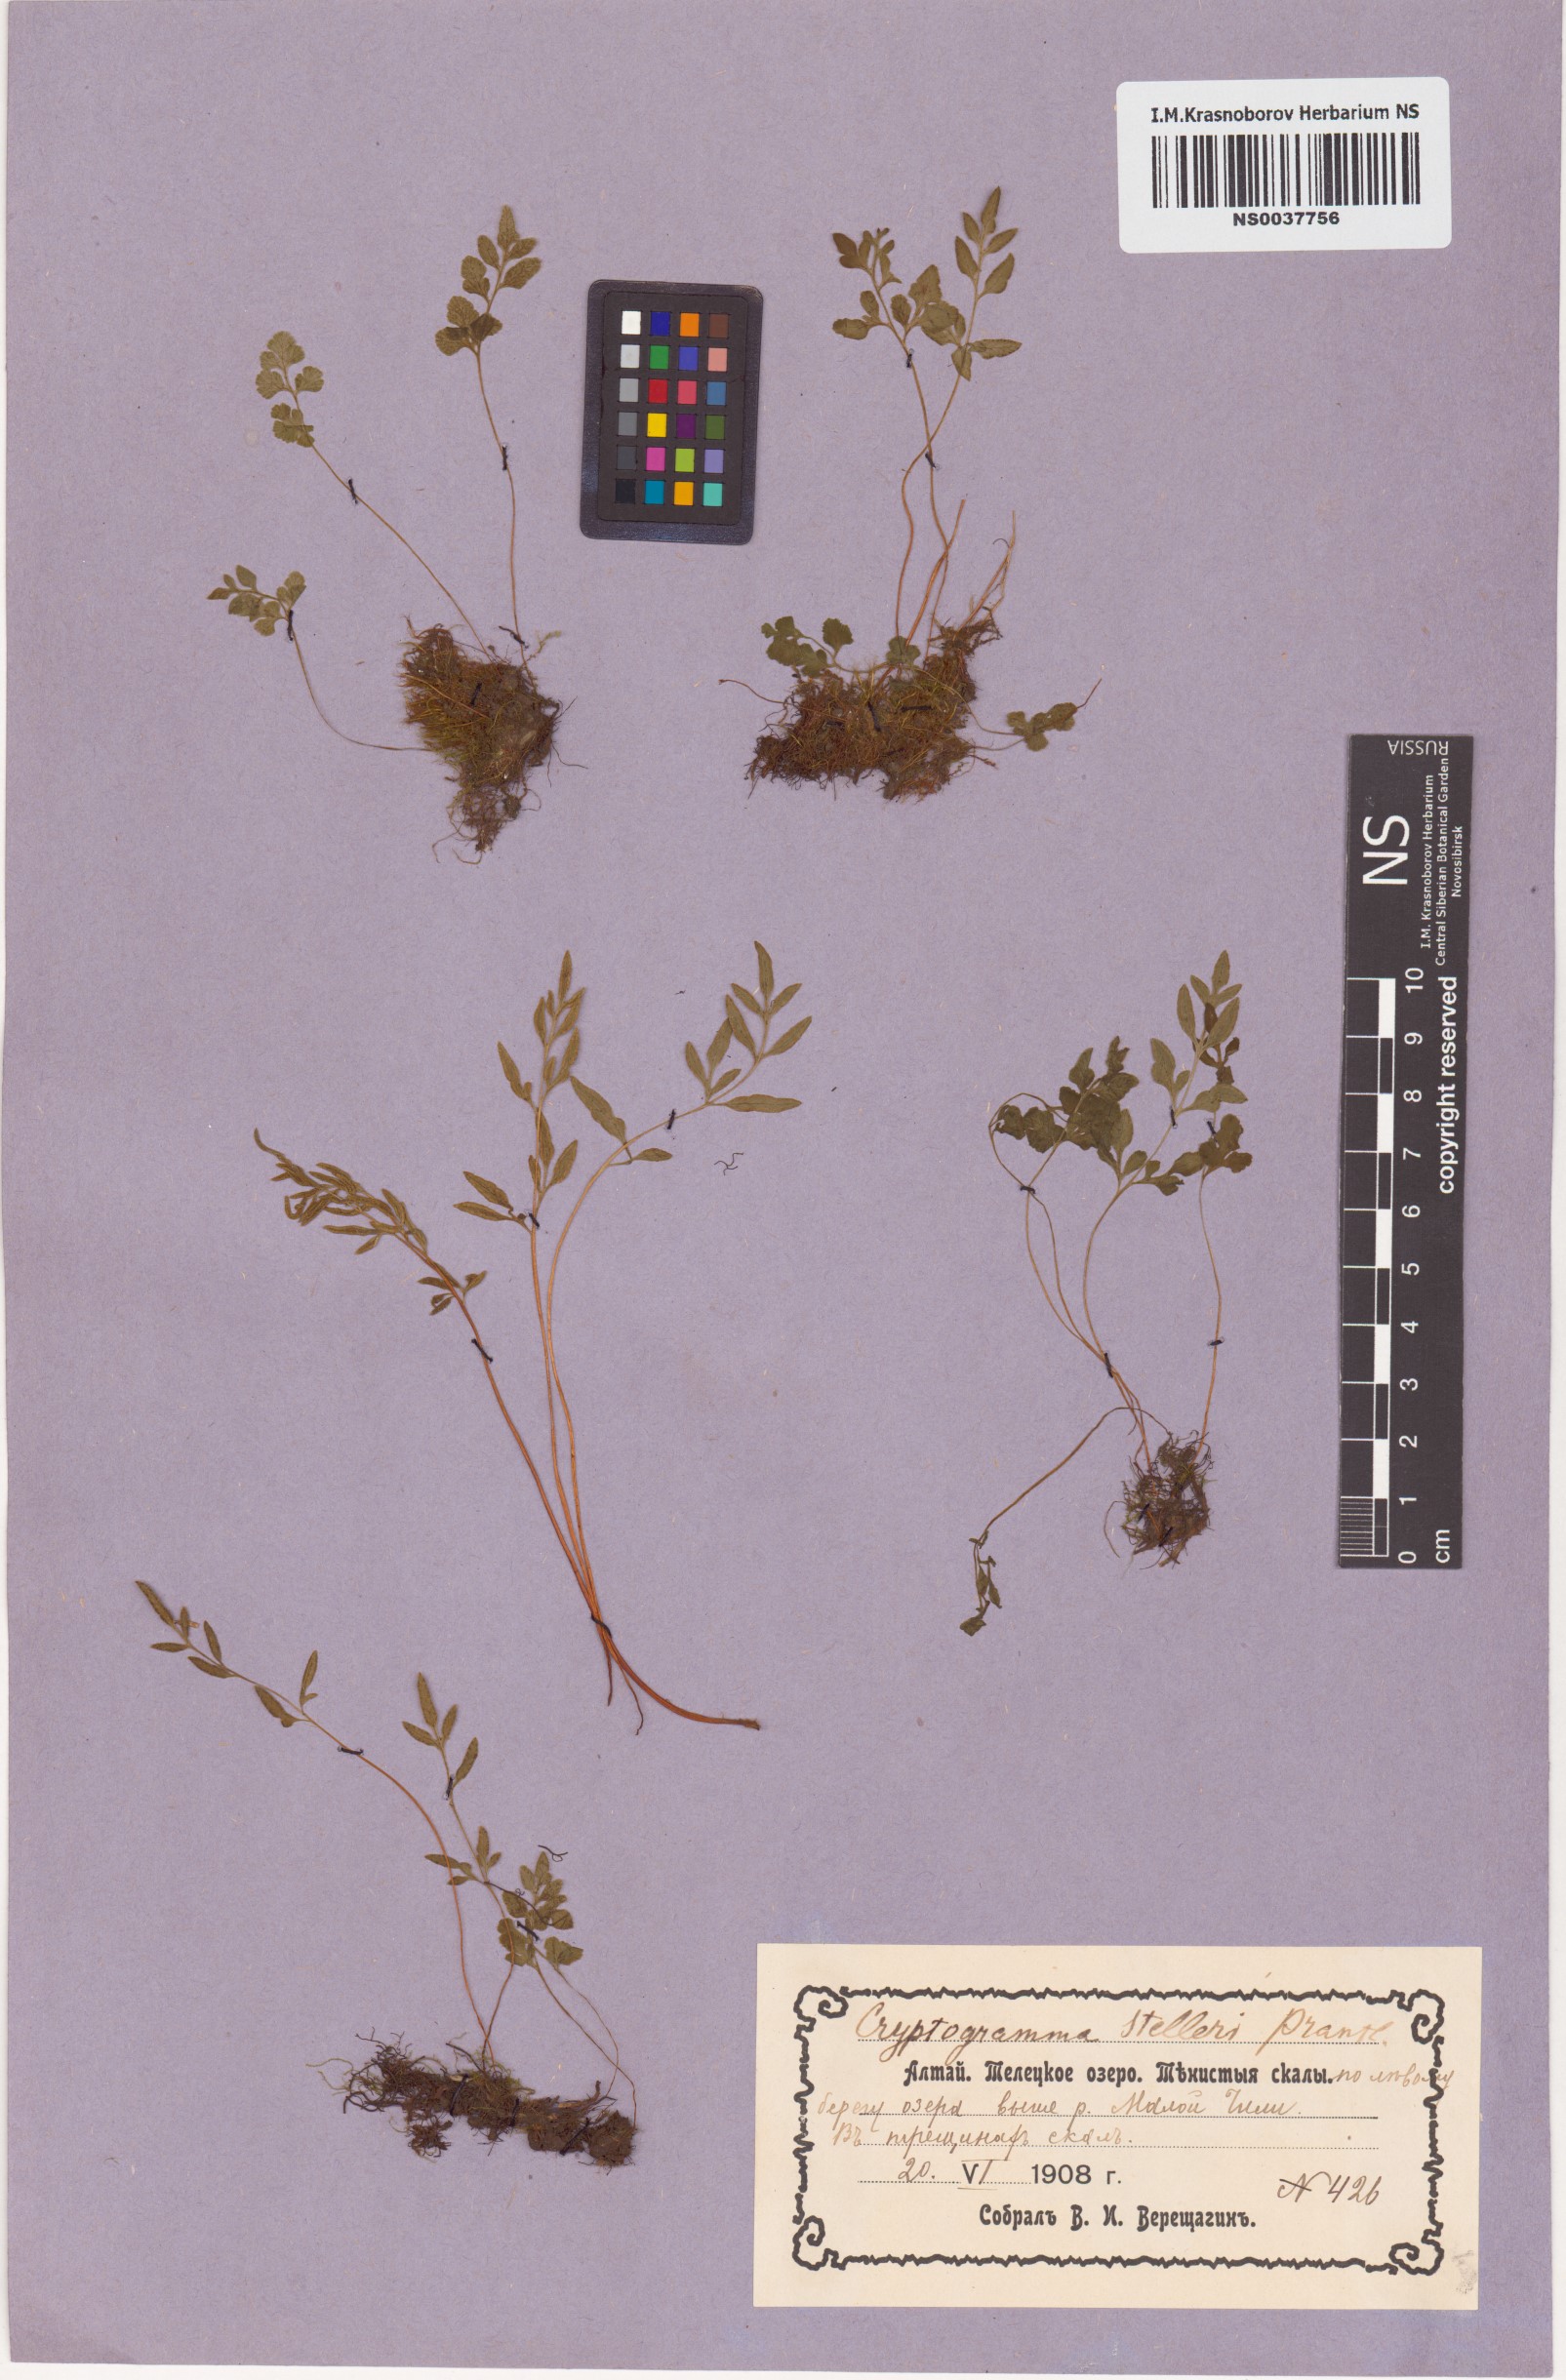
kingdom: Plantae
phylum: Tracheophyta
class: Polypodiopsida
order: Polypodiales
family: Pteridaceae
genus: Cryptogramma
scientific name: Cryptogramma stelleri
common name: Cliff-brake
